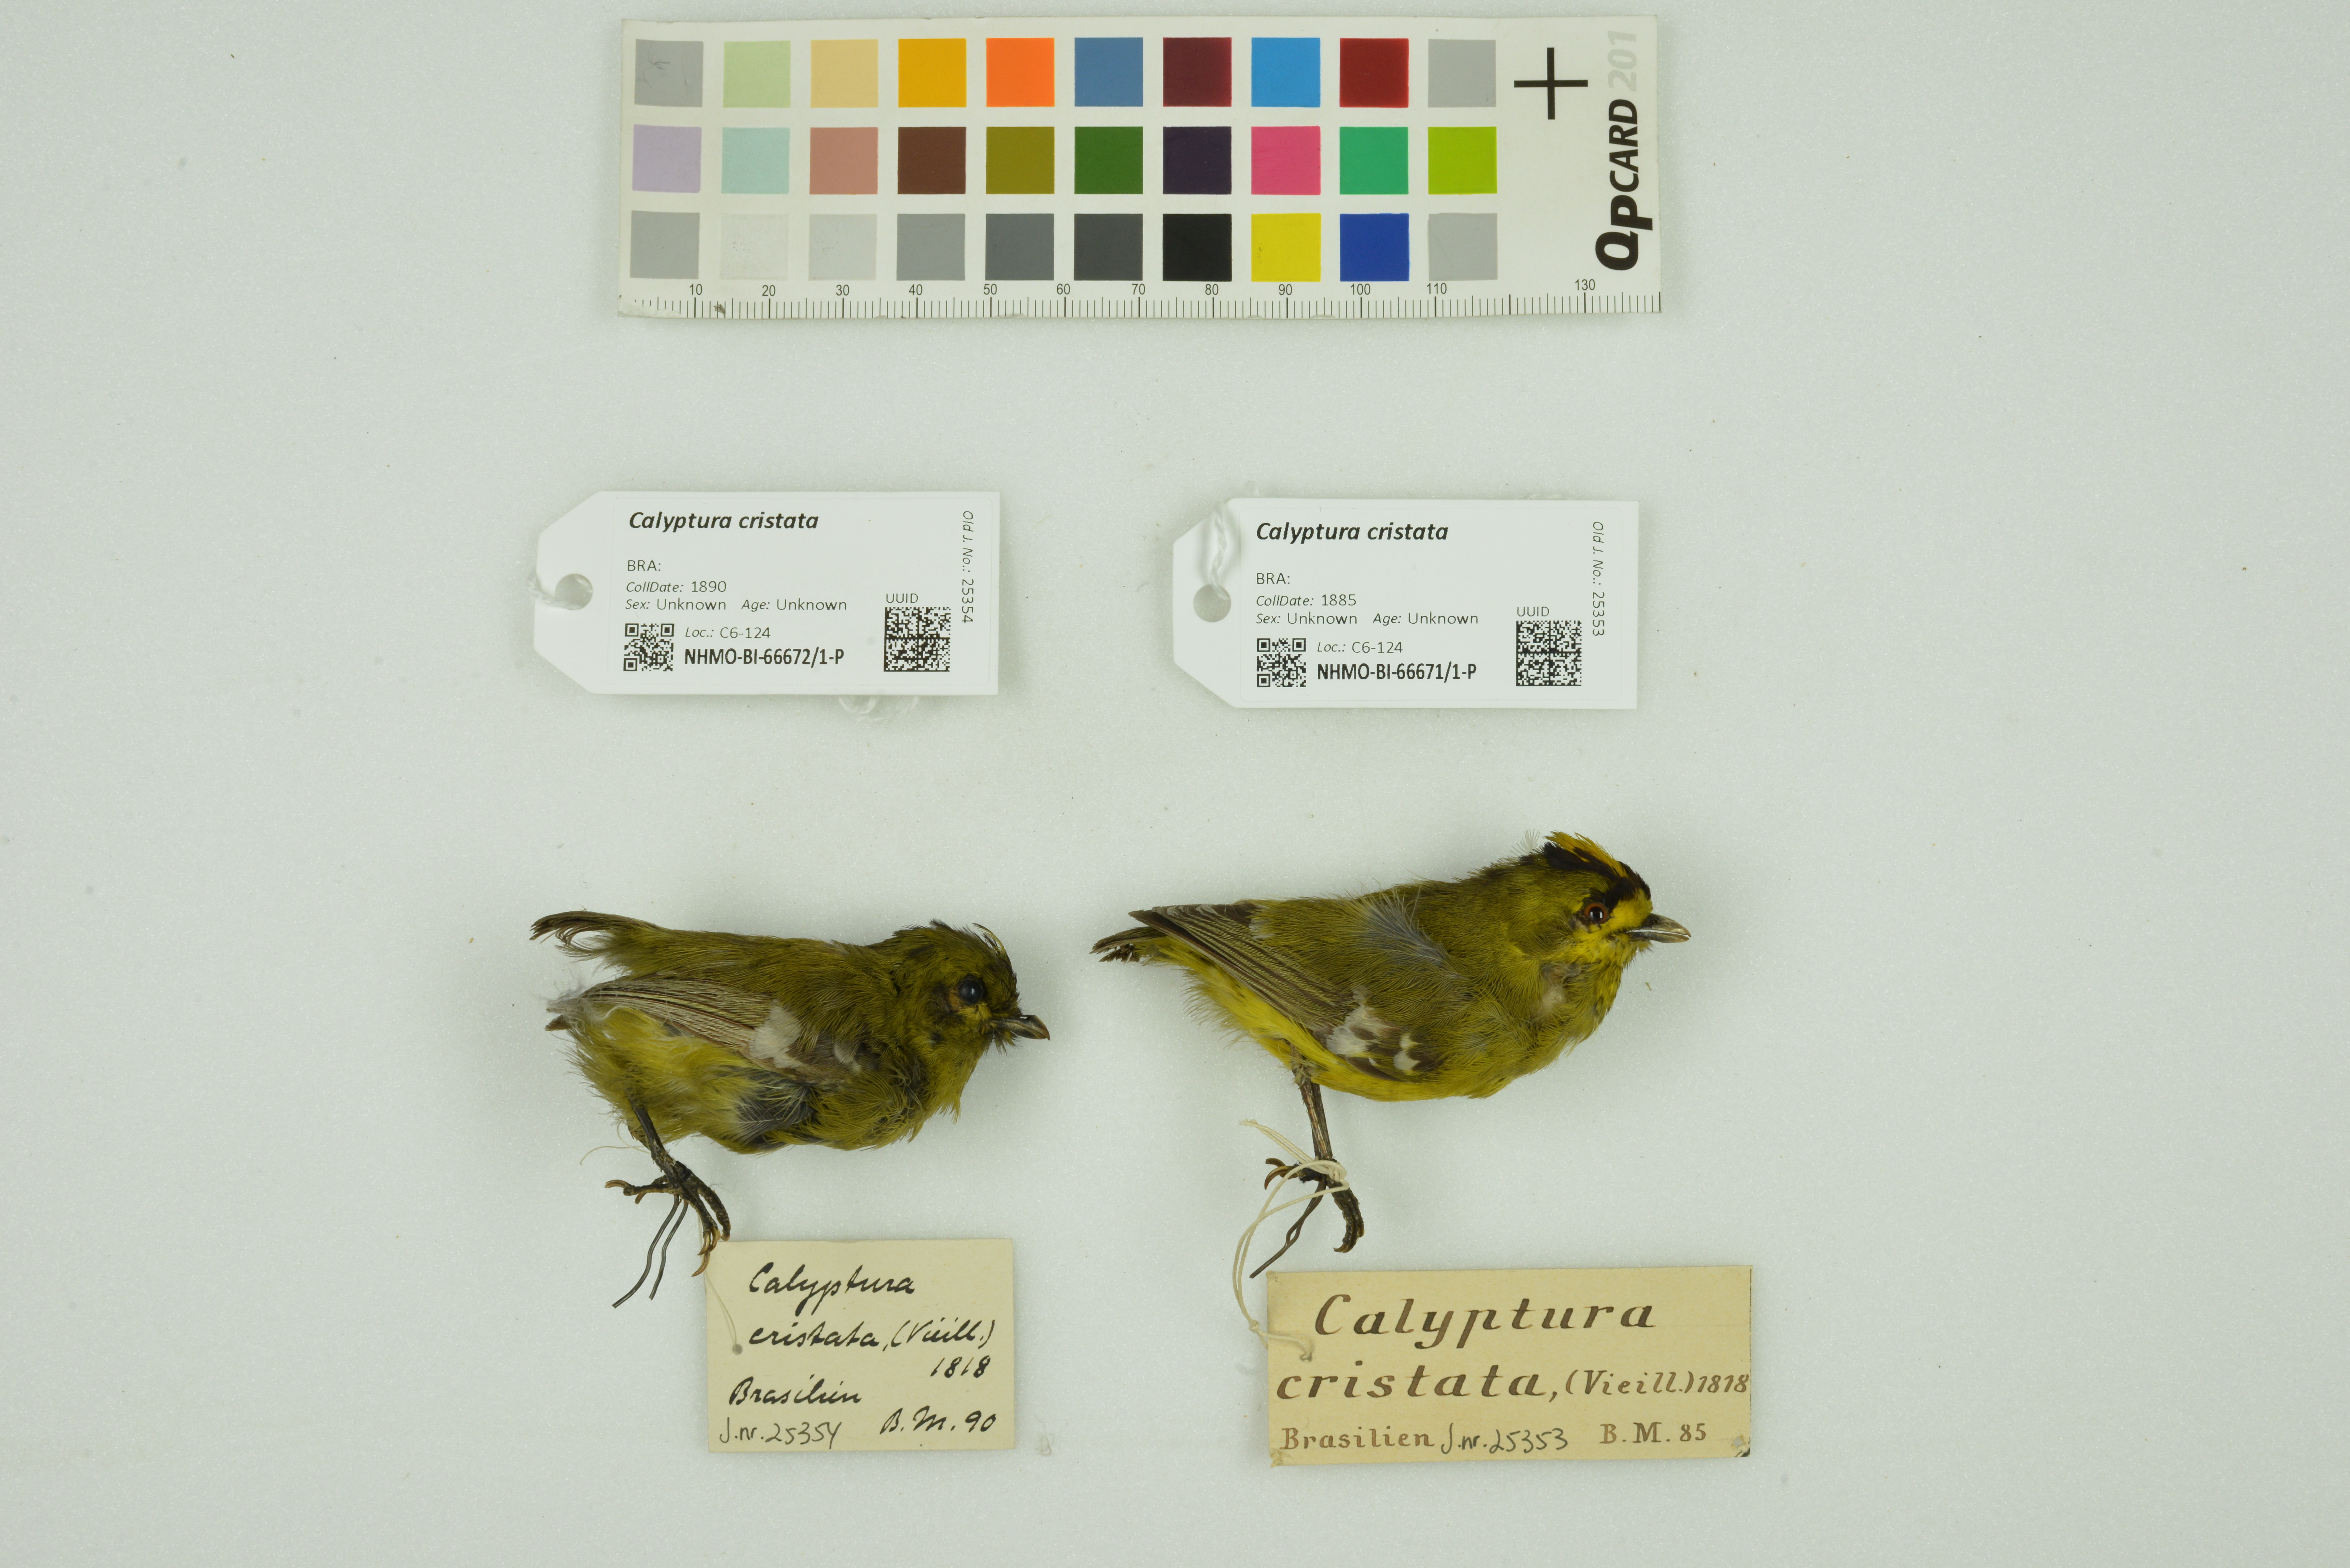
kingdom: Animalia
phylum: Chordata
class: Aves
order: Passeriformes
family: Cotingidae
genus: Calyptura
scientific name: Calyptura cristata
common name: Kinglet calyptura
